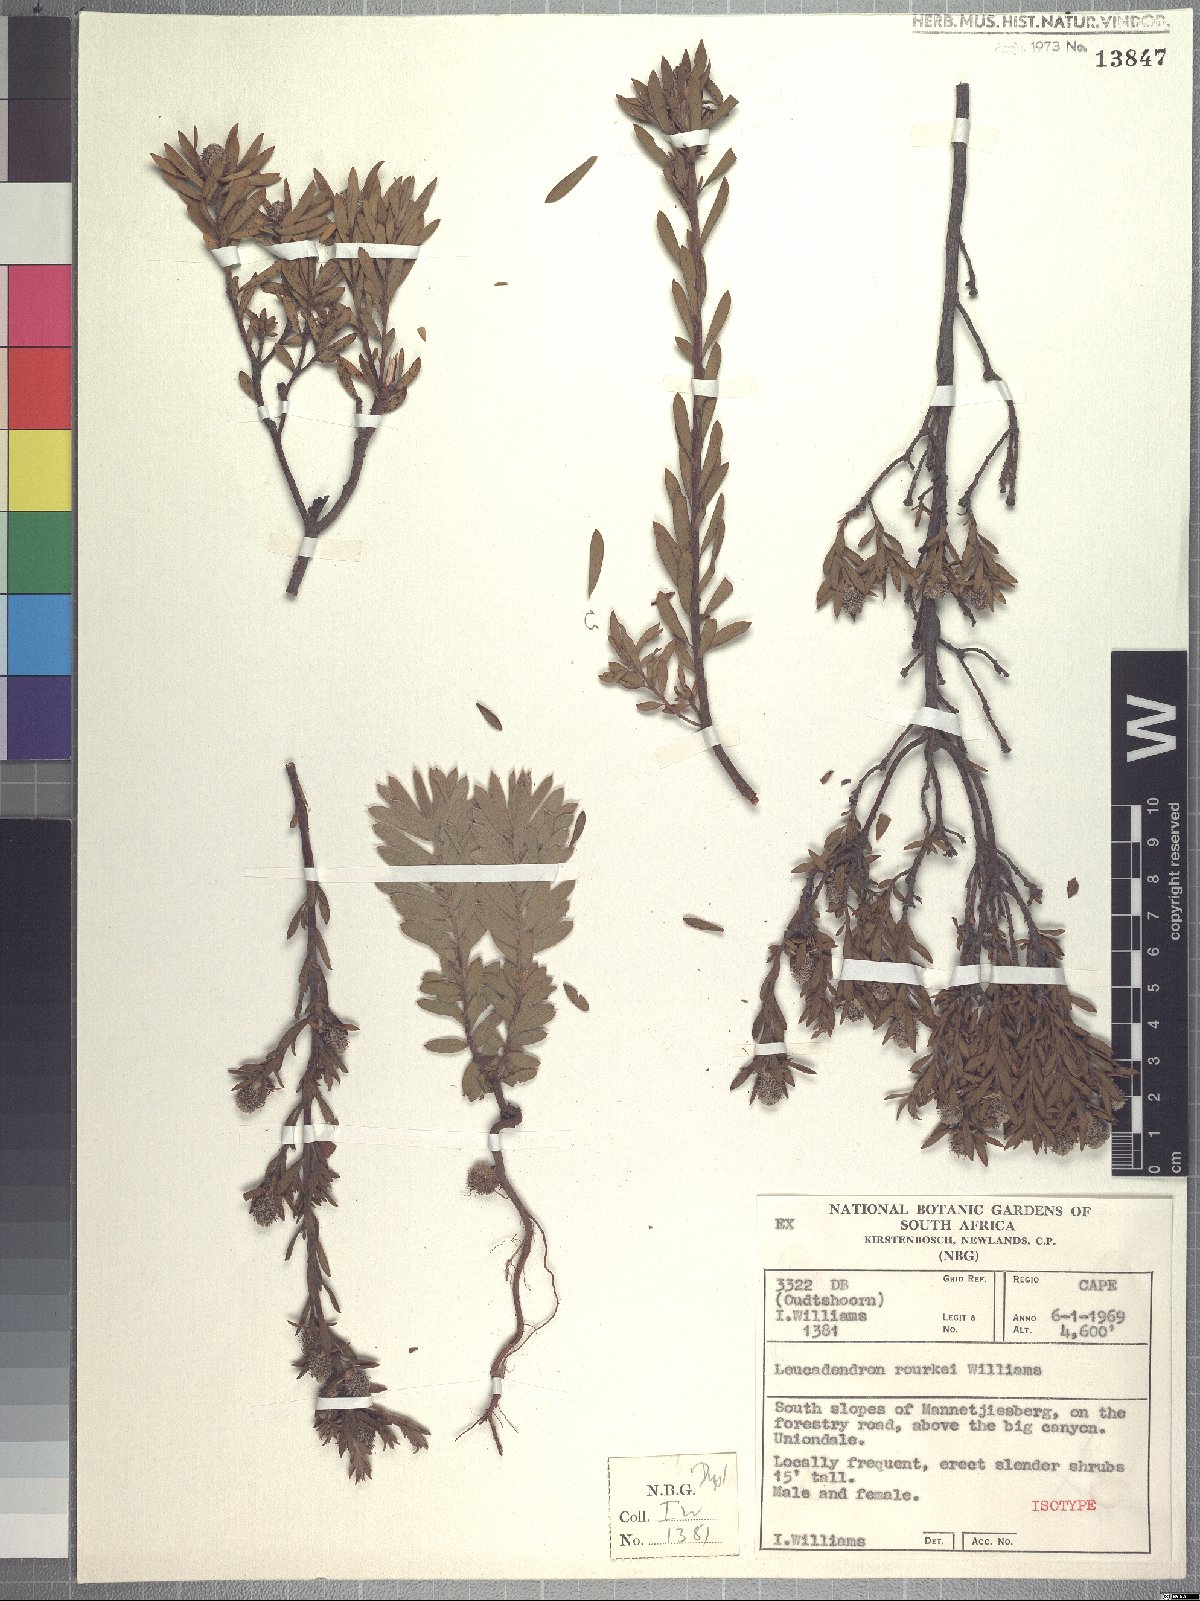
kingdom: Plantae
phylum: Tracheophyta
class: Magnoliopsida
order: Proteales
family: Proteaceae
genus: Leucadendron
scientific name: Leucadendron rourkei
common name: Uniondale conebush
